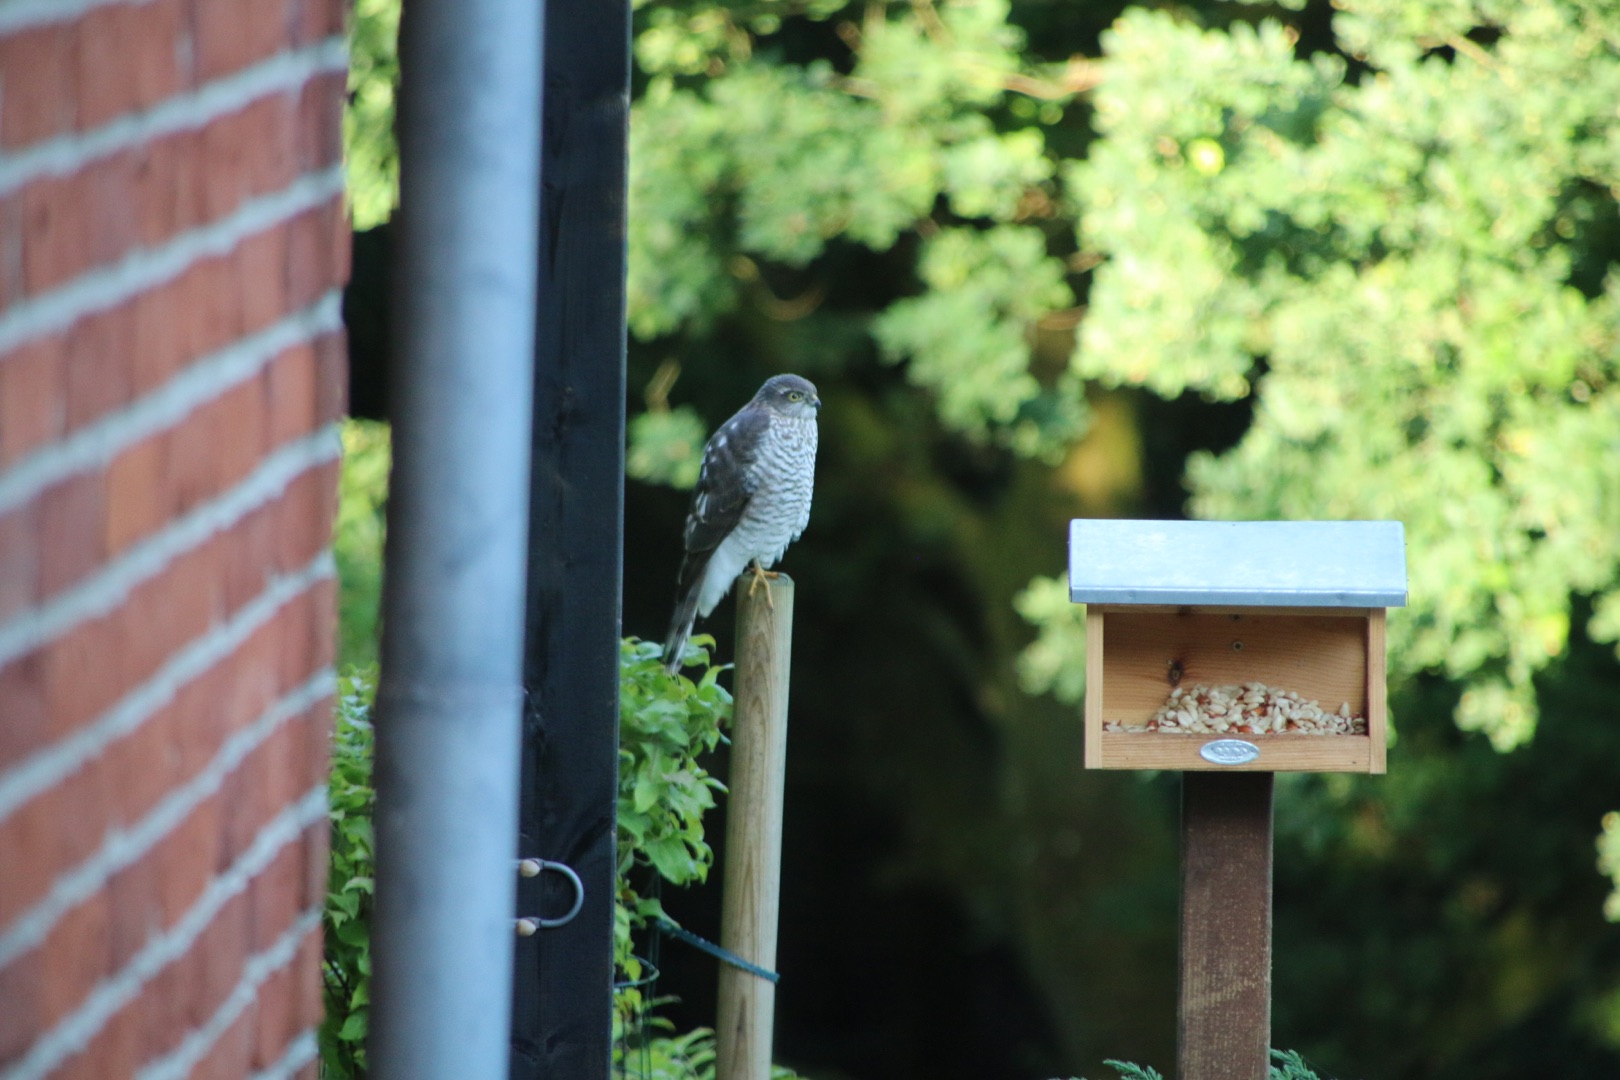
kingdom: Animalia
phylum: Chordata
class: Aves
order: Accipitriformes
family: Accipitridae
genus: Accipiter
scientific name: Accipiter nisus
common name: Spurvehøg
